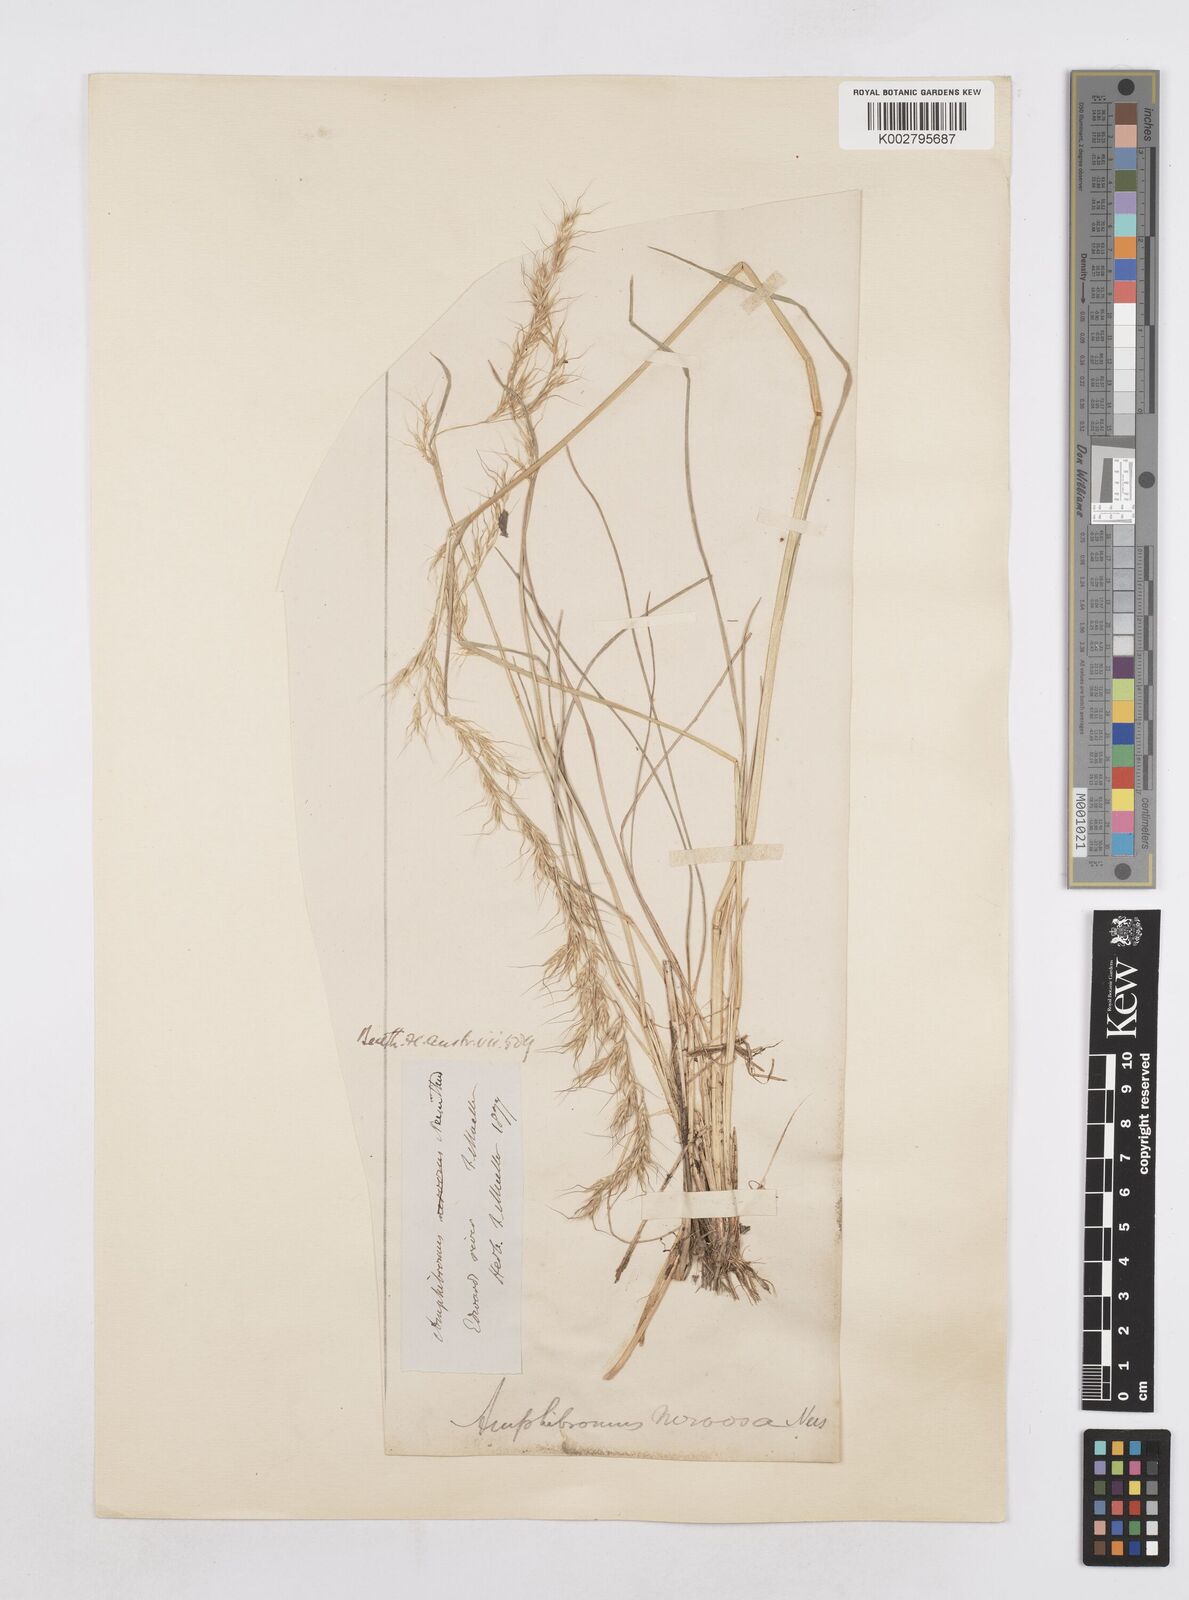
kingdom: Plantae
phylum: Tracheophyta
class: Liliopsida
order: Poales
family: Poaceae
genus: Amphibromus
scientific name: Amphibromus neesii
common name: Australian wallaby grass
